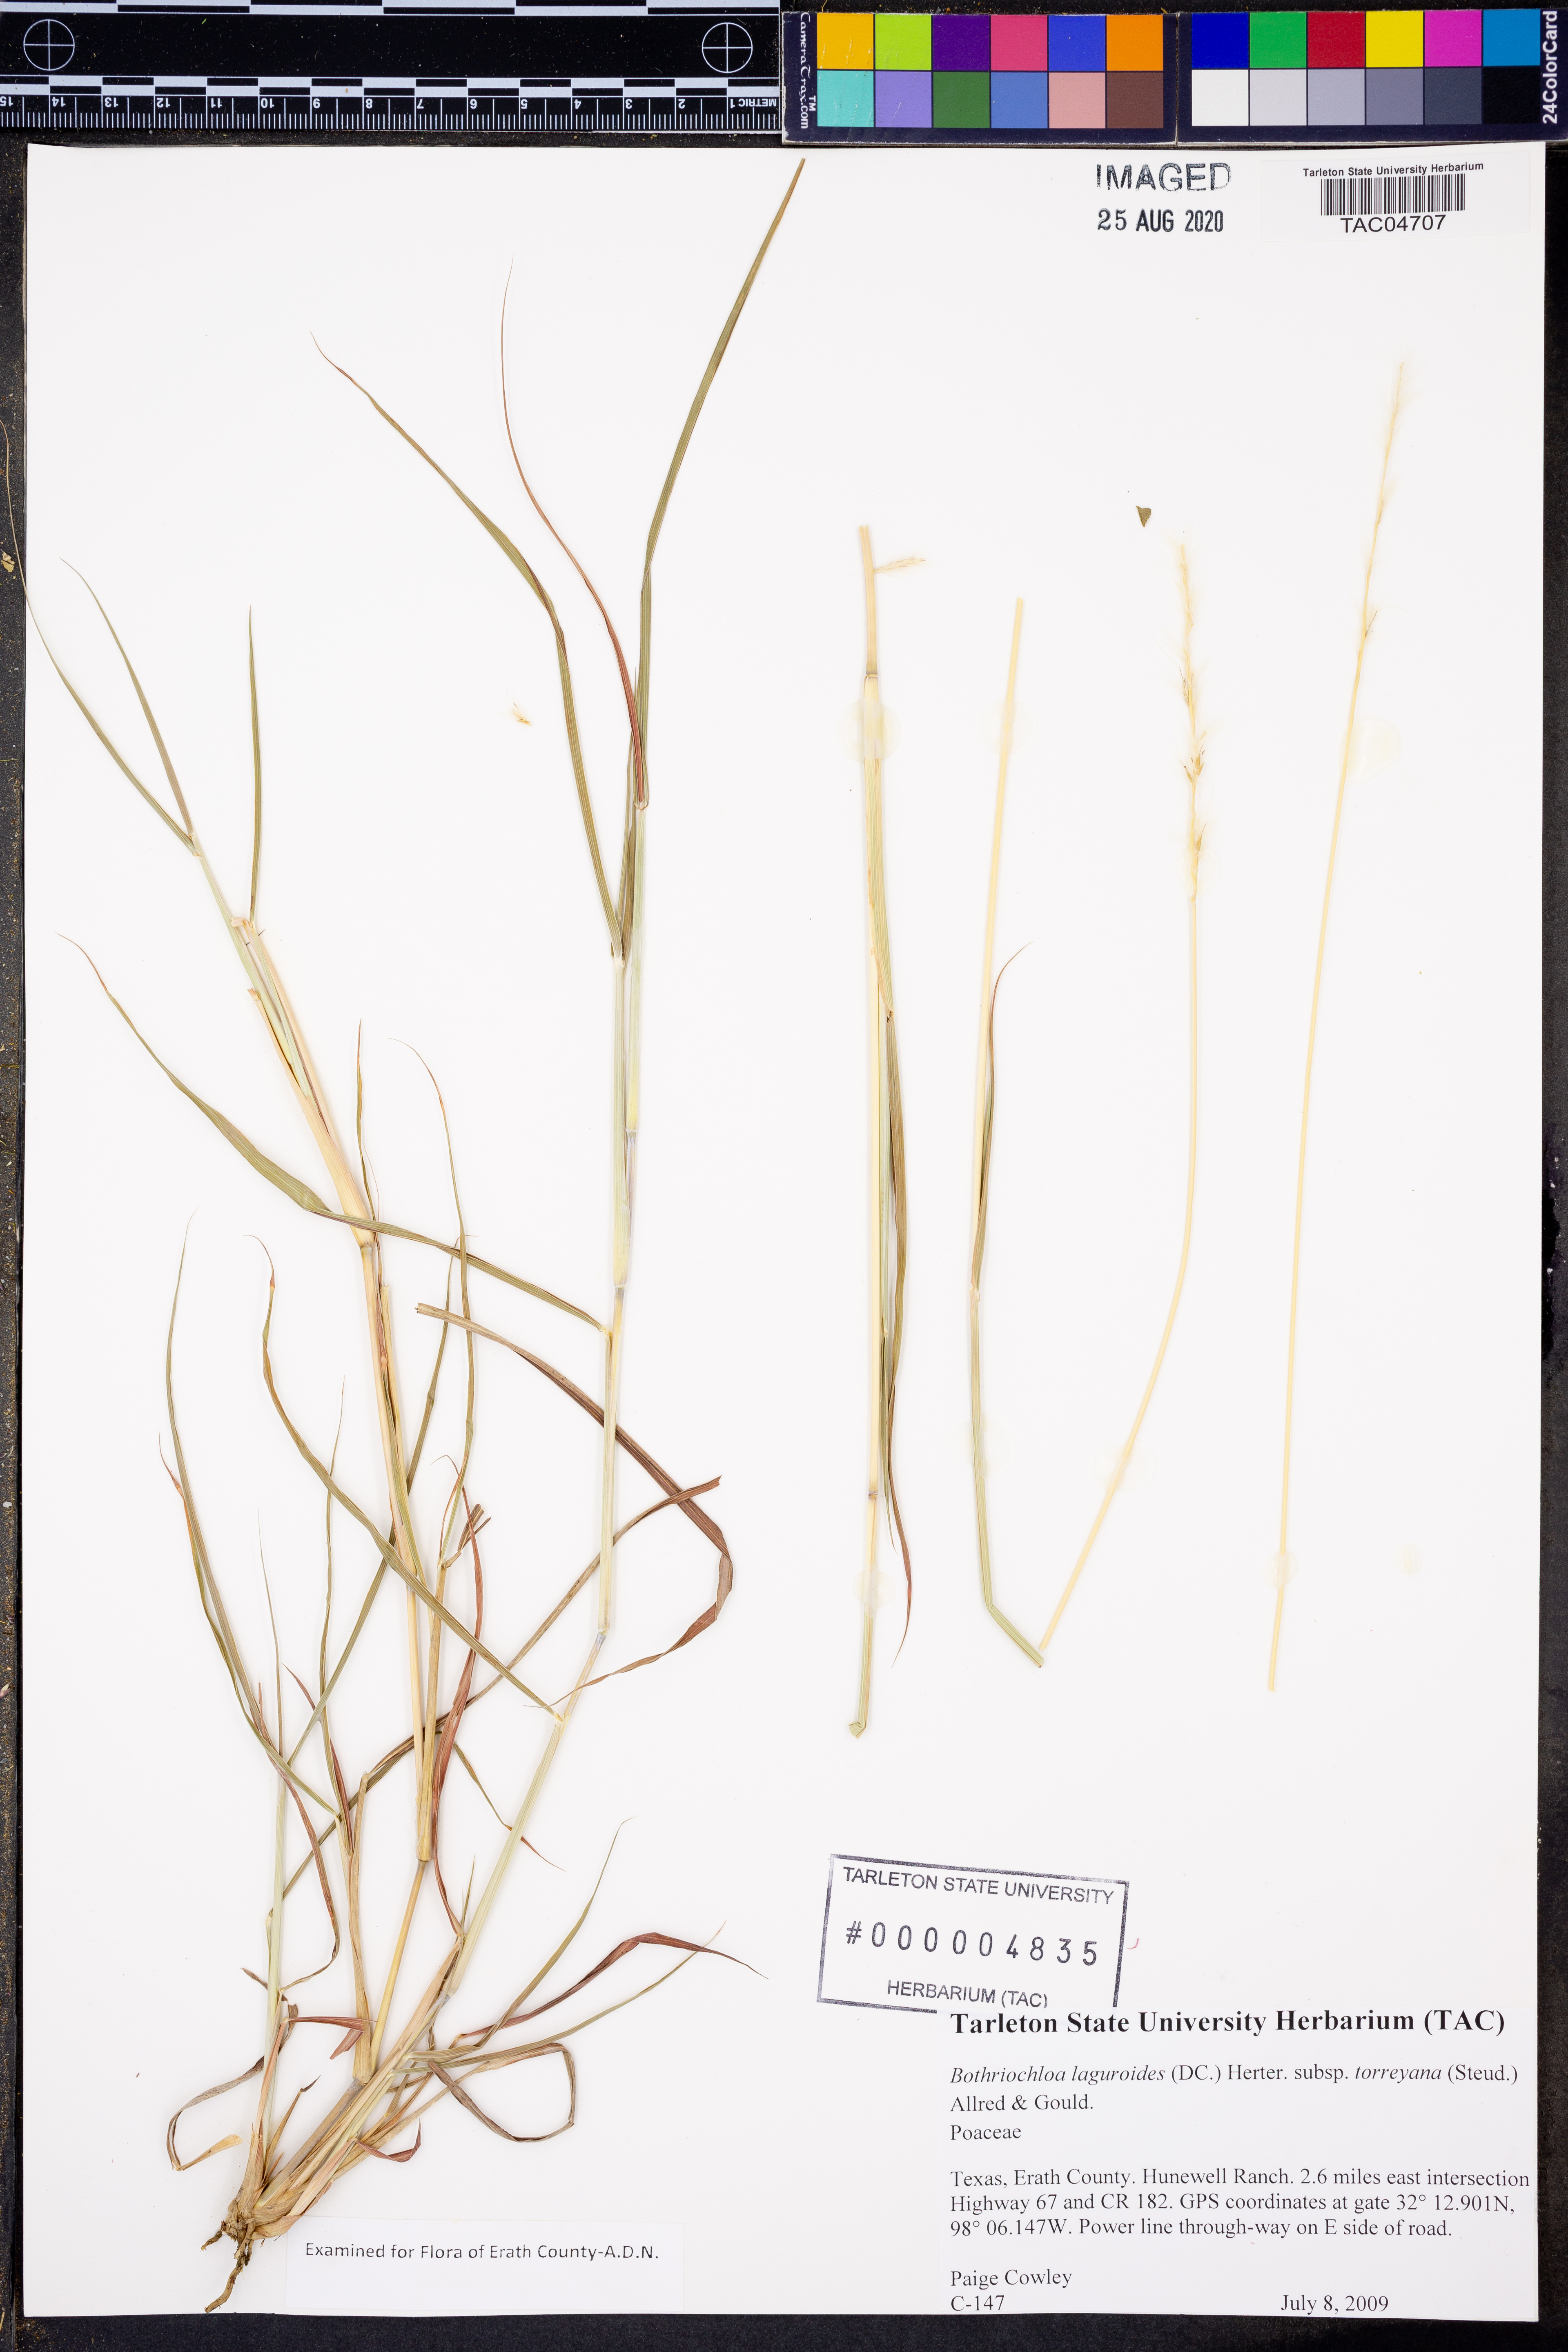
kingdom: Plantae
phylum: Tracheophyta
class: Liliopsida
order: Poales
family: Poaceae
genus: Bothriochloa
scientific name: Bothriochloa torreyana
